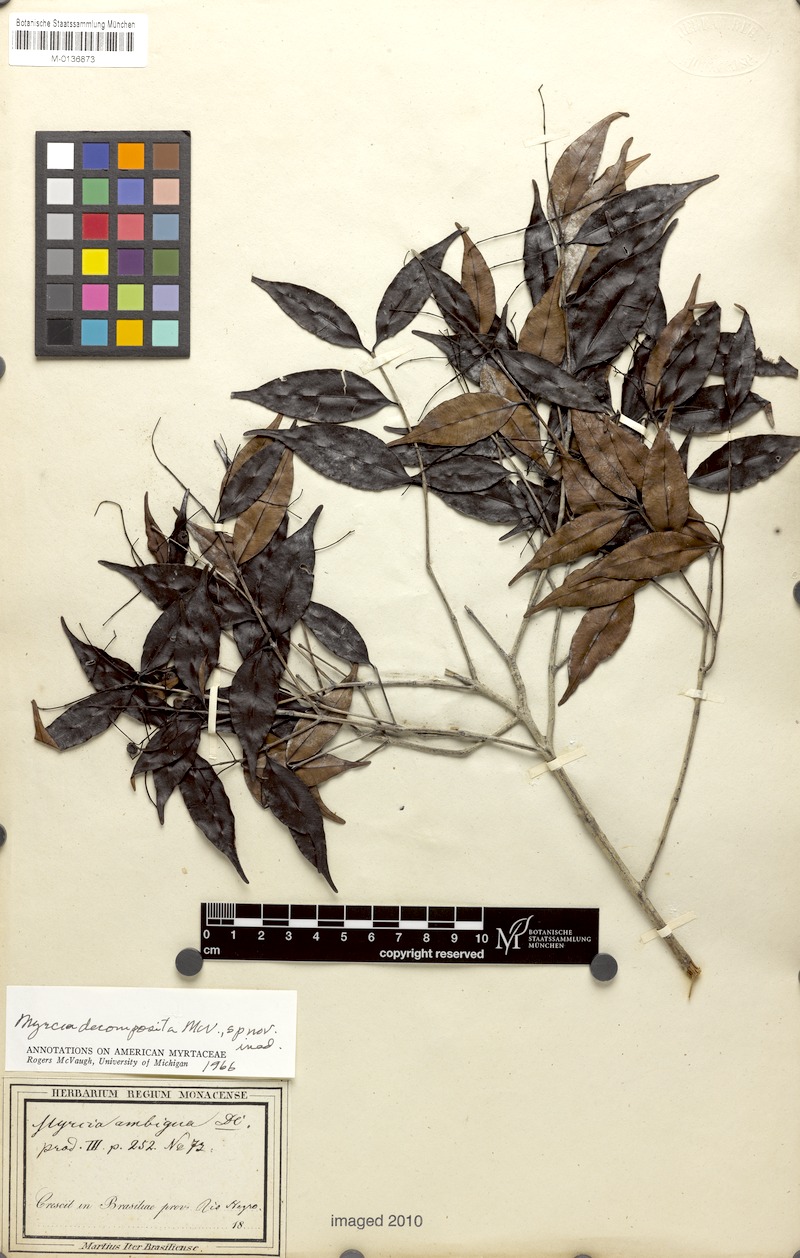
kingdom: Plantae
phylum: Tracheophyta
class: Magnoliopsida
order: Myrtales
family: Myrtaceae
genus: Myrcia
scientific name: Myrcia sylvatica
